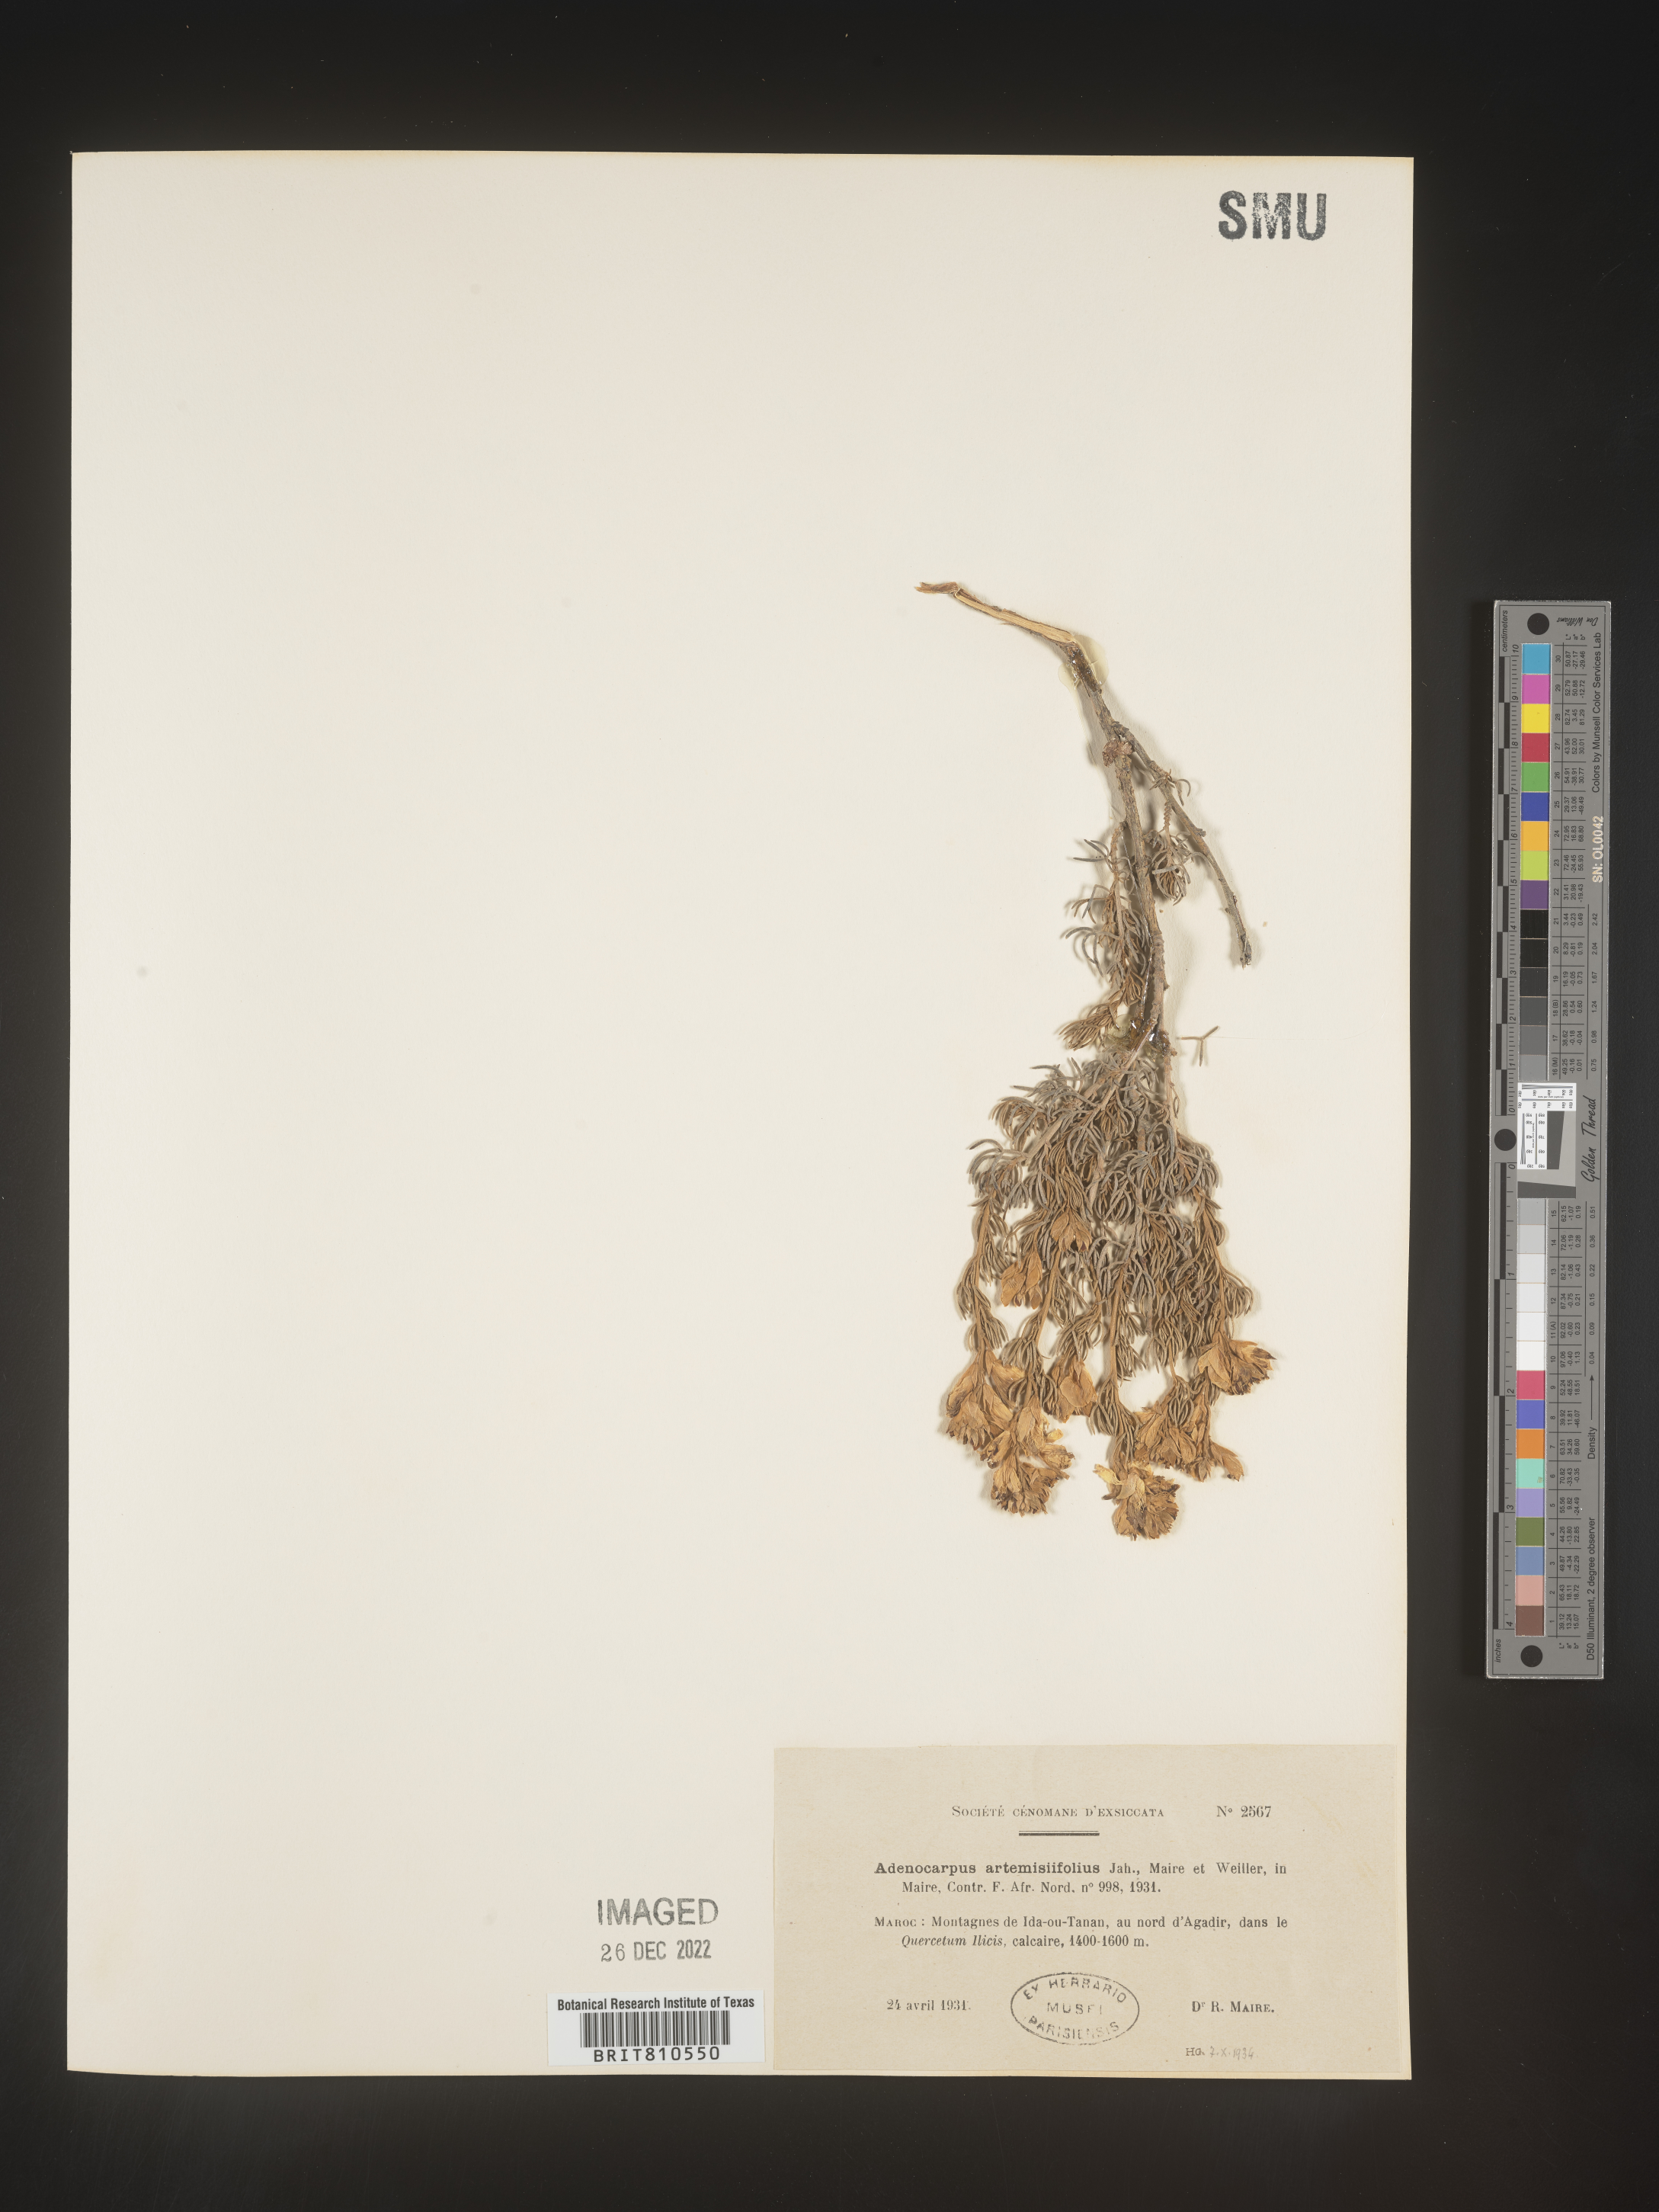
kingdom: Plantae
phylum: Tracheophyta
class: Magnoliopsida
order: Fabales
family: Fabaceae
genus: Adenocarpus
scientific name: Adenocarpus
